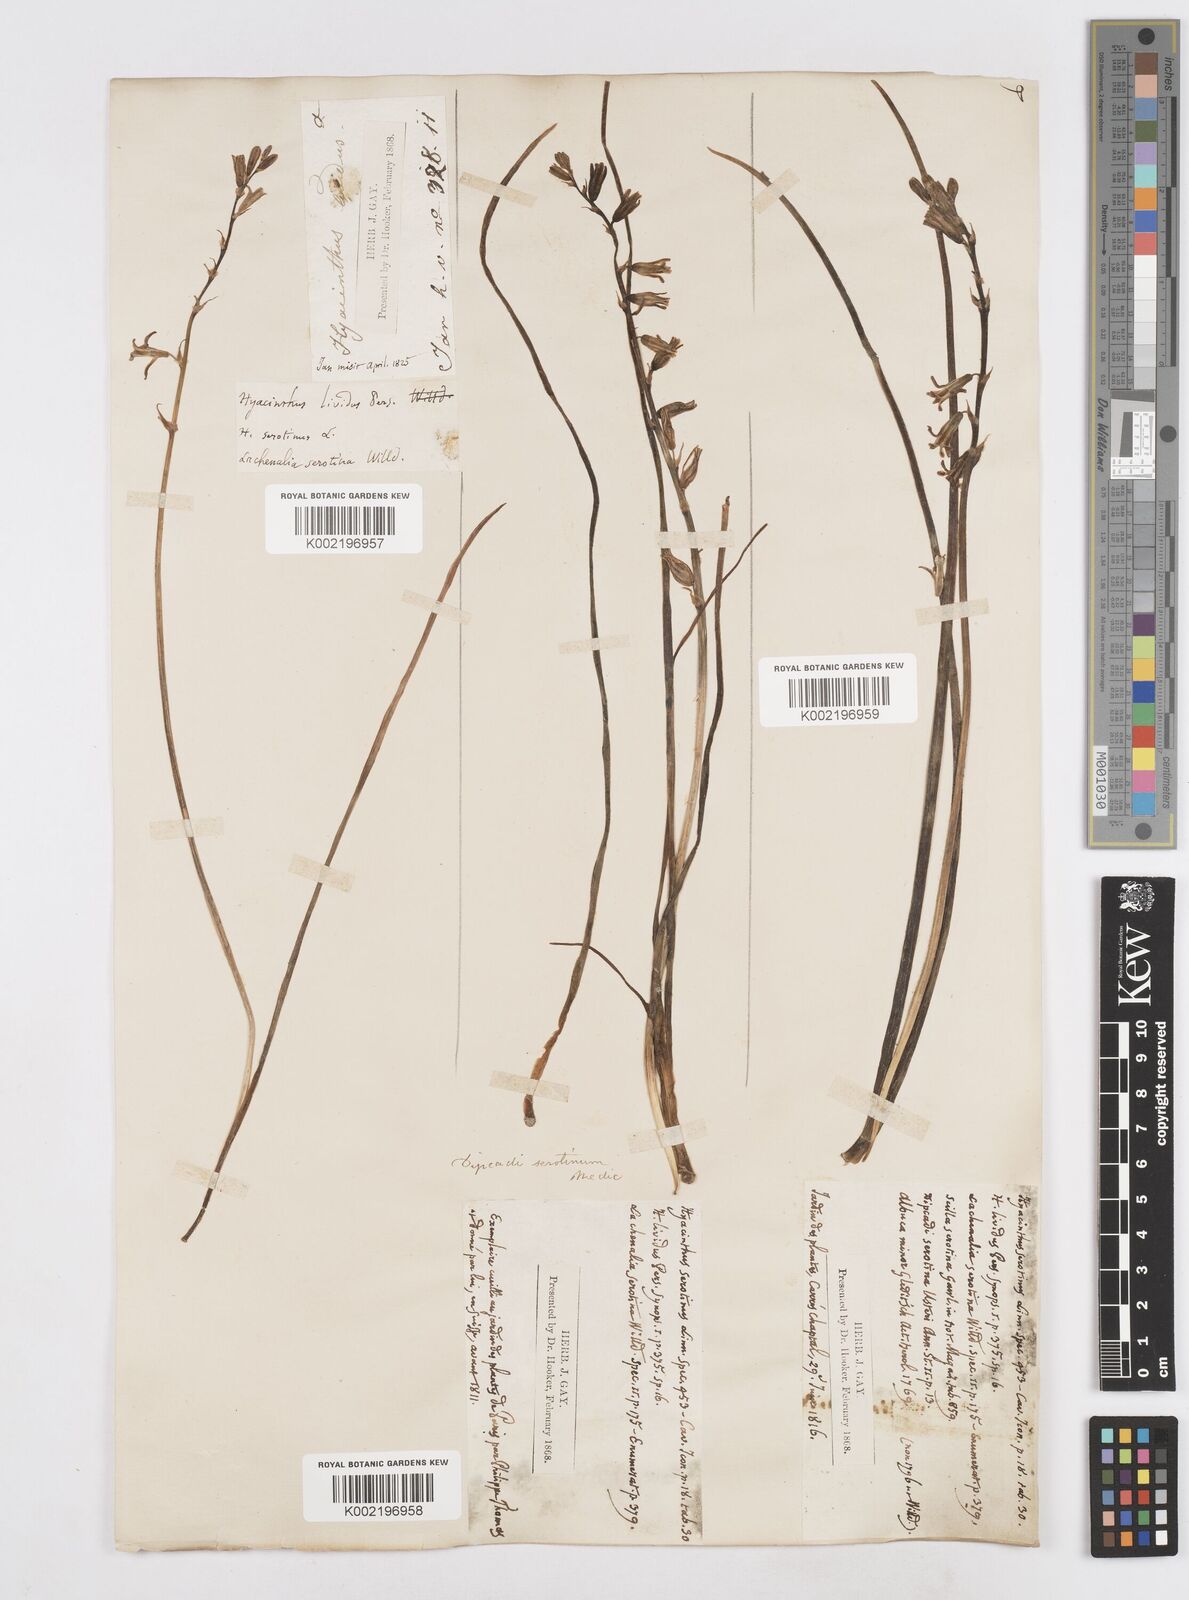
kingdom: Plantae
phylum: Tracheophyta
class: Liliopsida
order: Asparagales
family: Asparagaceae
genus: Dipcadi
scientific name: Dipcadi serotinum
